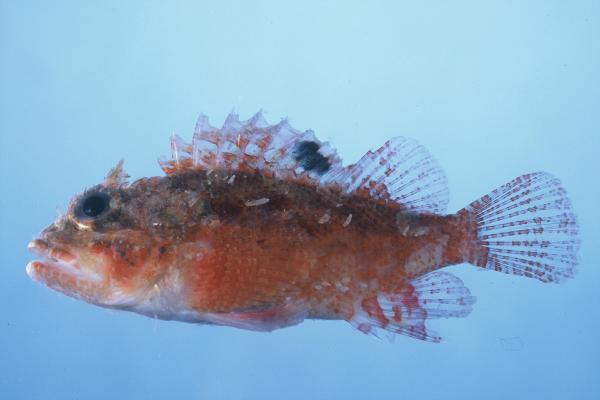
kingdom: Animalia
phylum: Chordata
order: Scorpaeniformes
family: Scorpaenidae
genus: Parascorpaena
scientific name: Parascorpaena mcadamsi
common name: Ocellated scorpionfish
